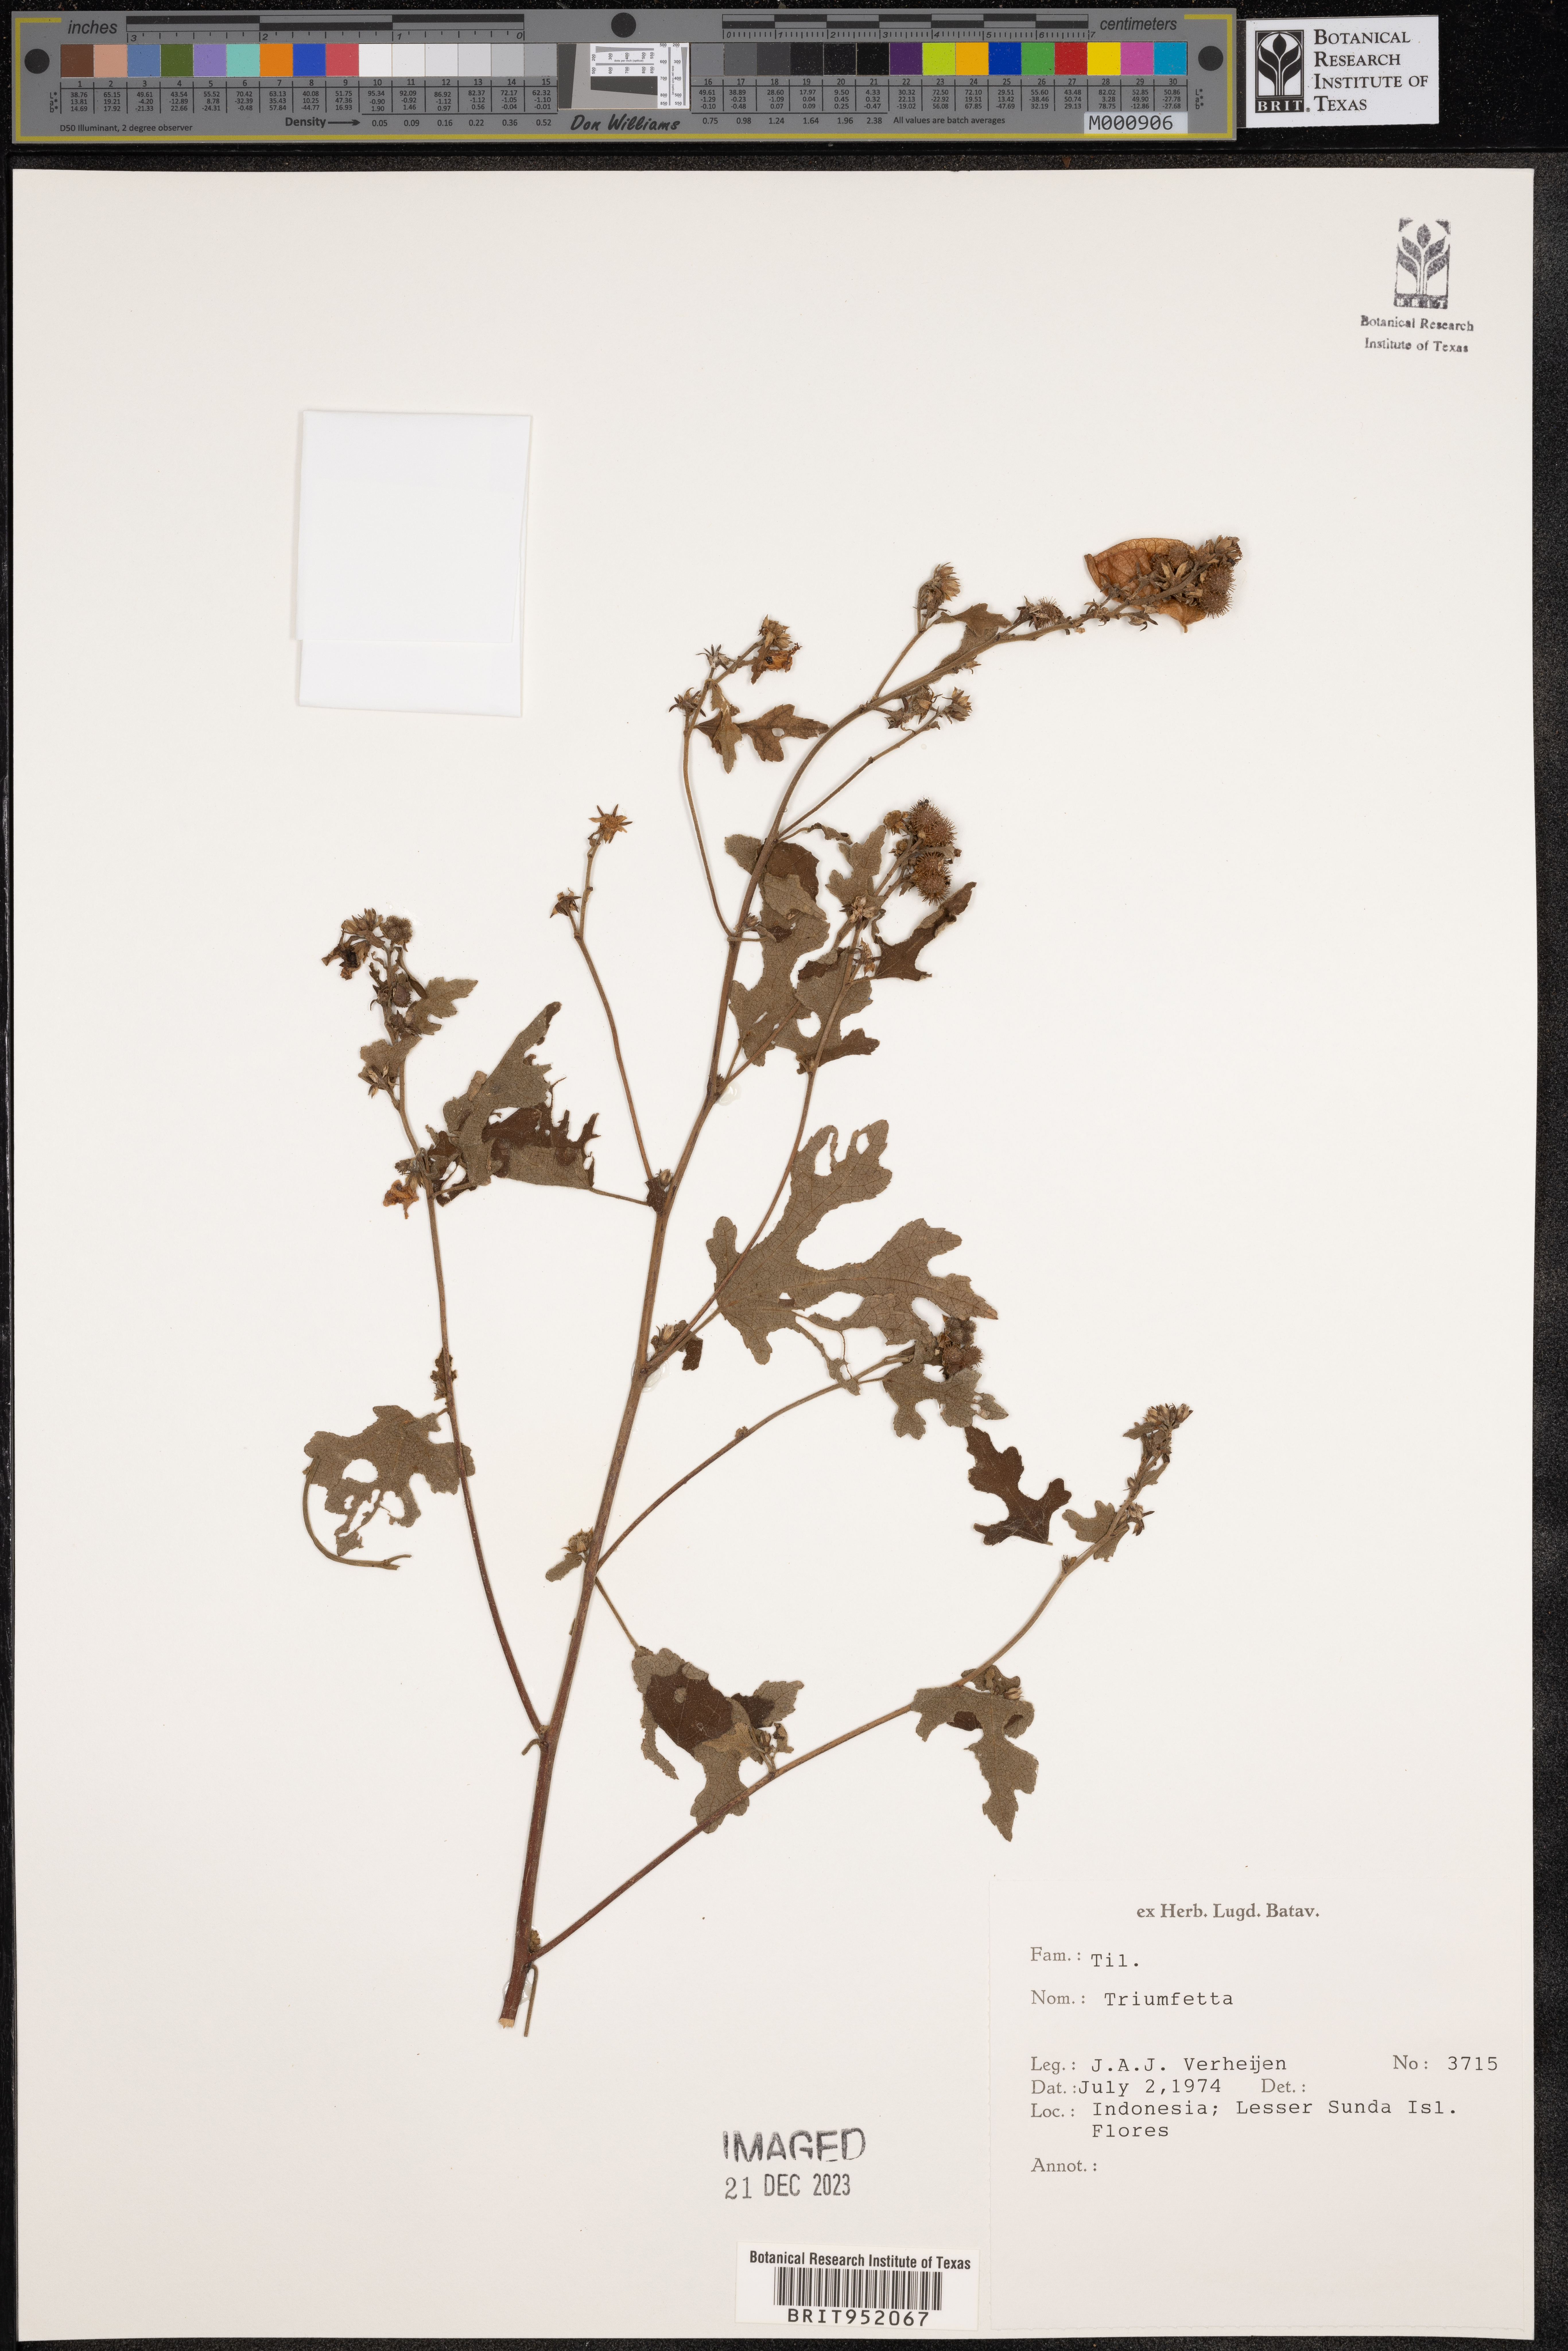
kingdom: Plantae
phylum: Tracheophyta
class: Magnoliopsida
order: Malvales
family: Malvaceae
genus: Triumfetta
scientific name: Triumfetta
